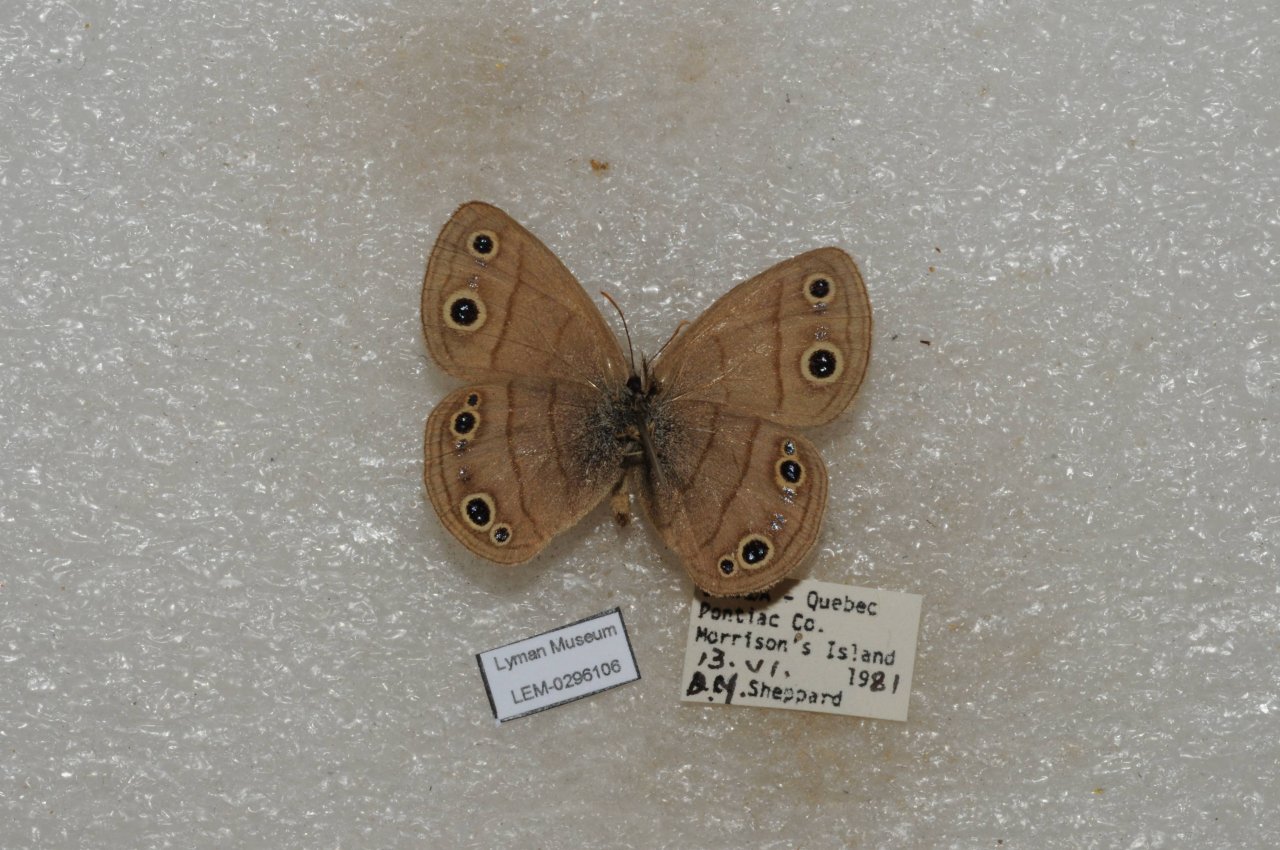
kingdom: Animalia
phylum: Arthropoda
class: Insecta
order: Lepidoptera
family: Nymphalidae
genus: Euptychia
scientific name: Euptychia cymela
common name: Little Wood Satyr
